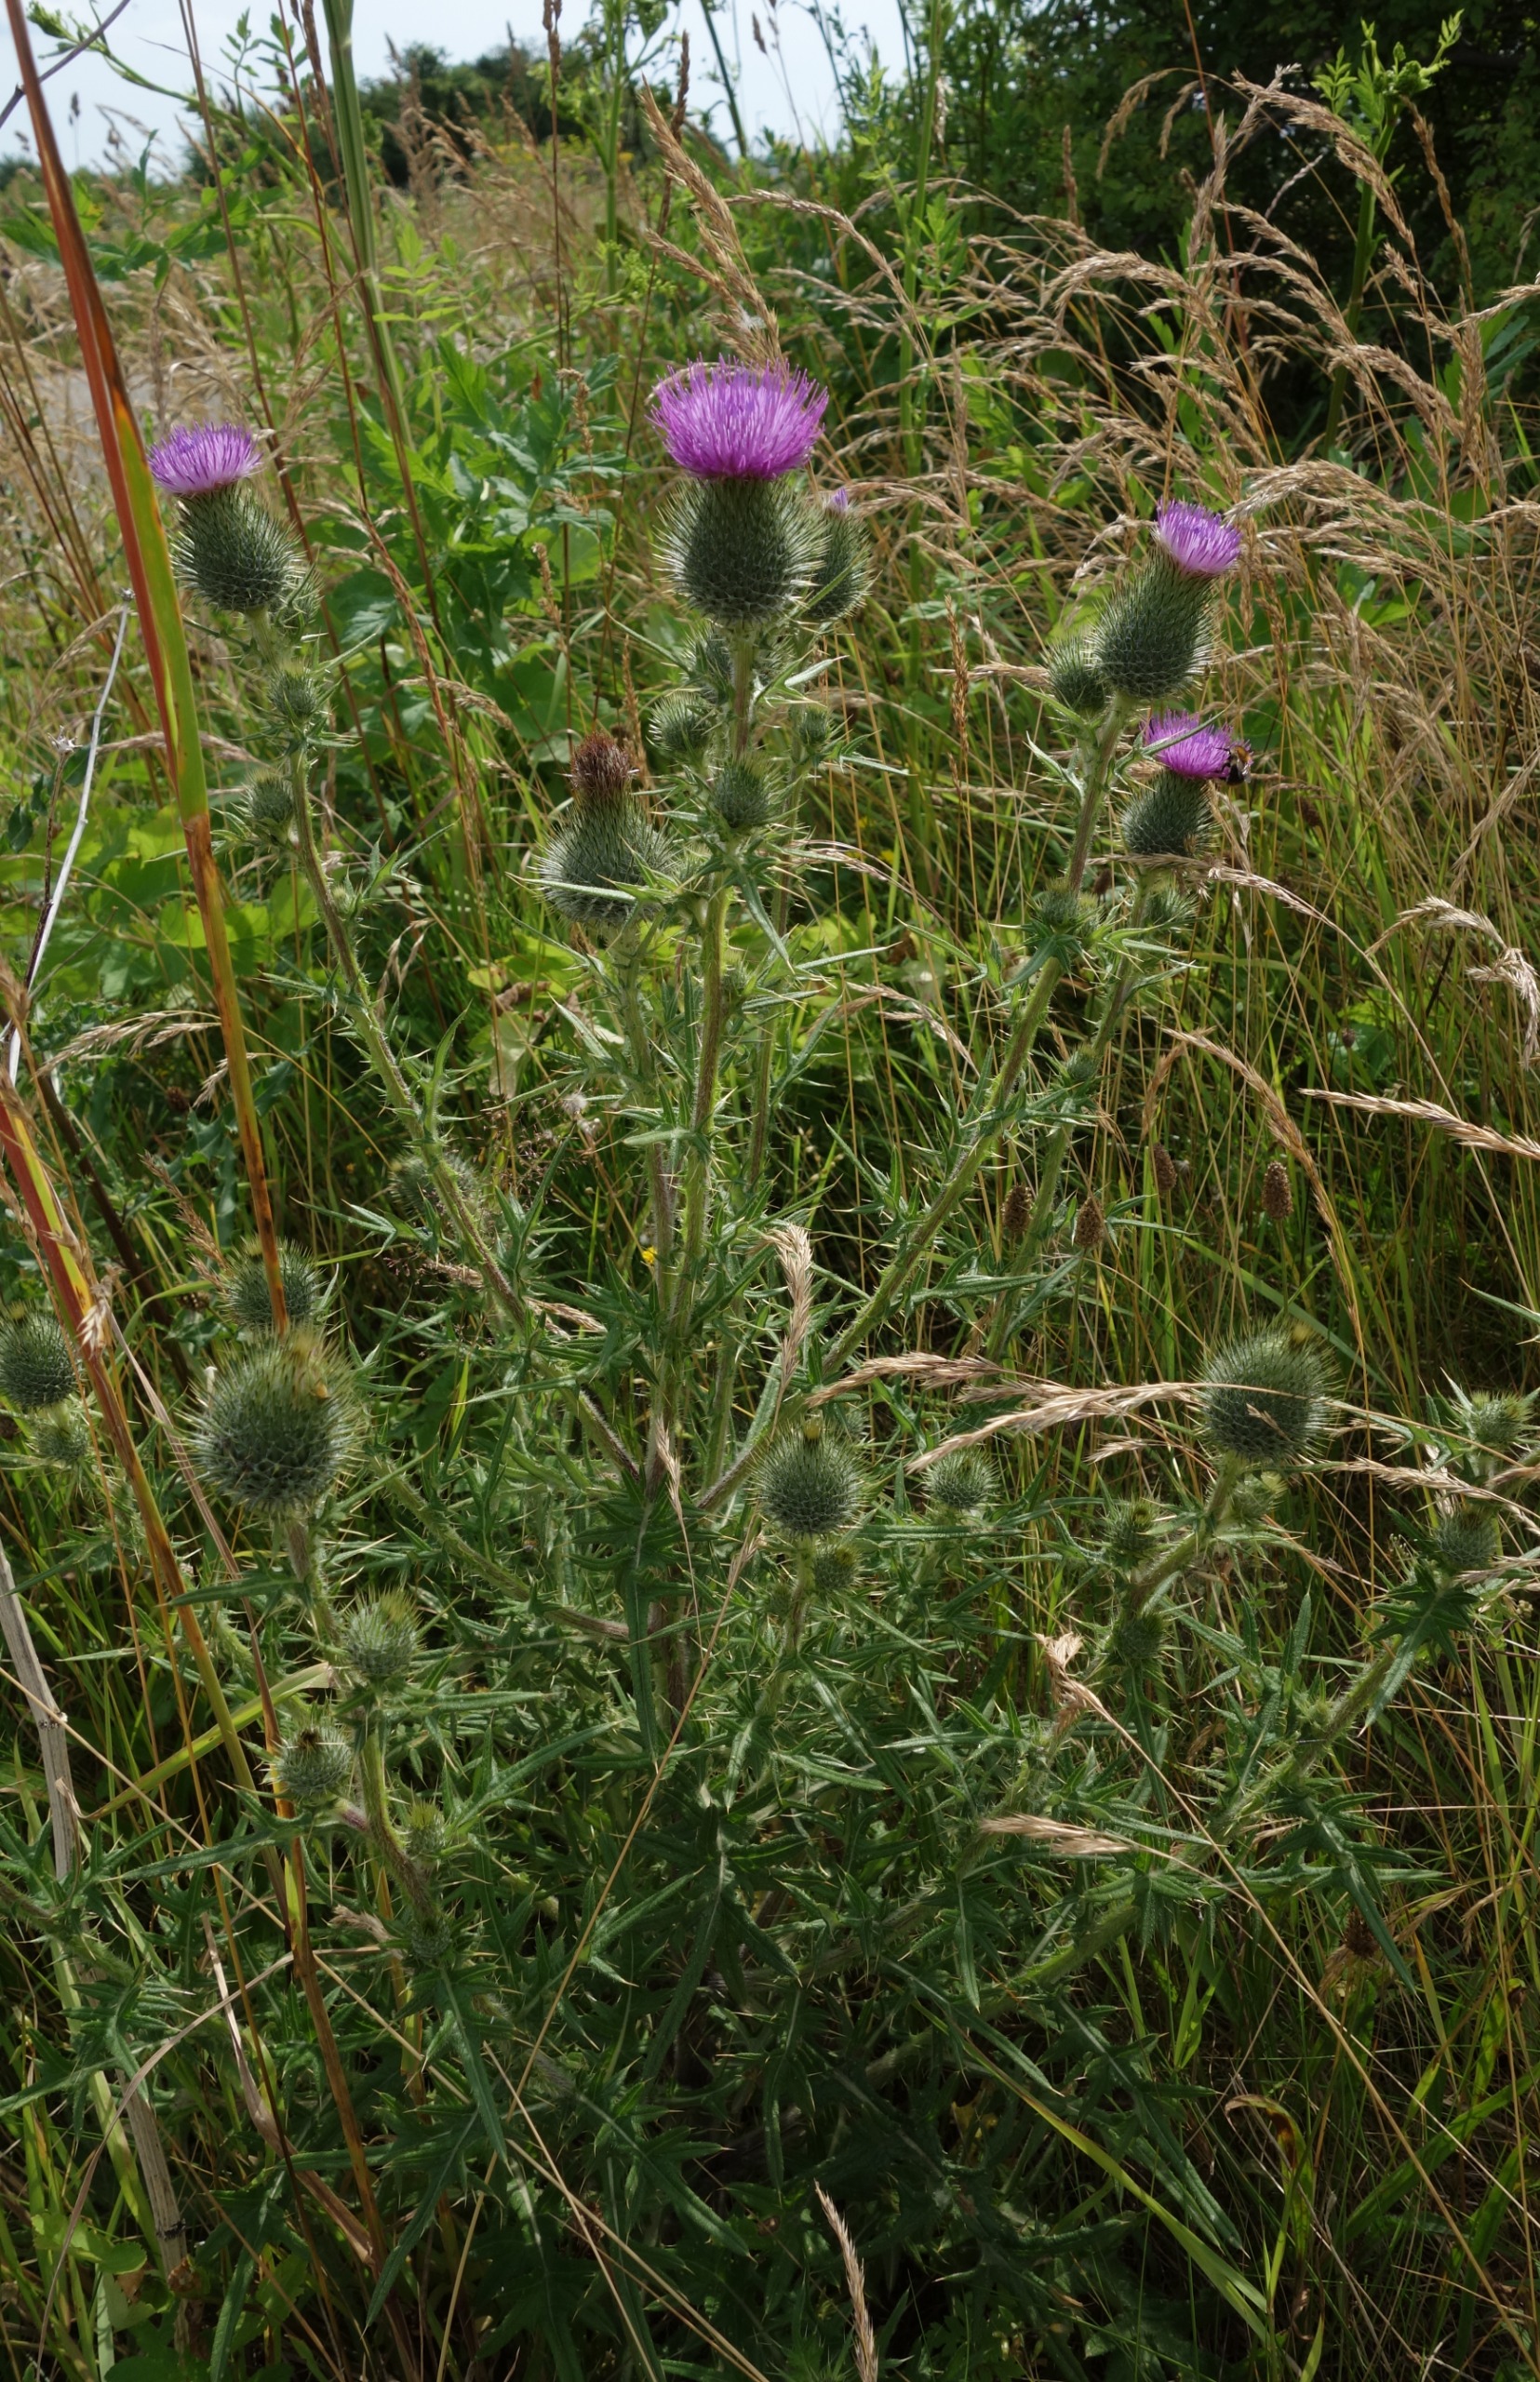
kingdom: Plantae
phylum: Tracheophyta
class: Magnoliopsida
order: Asterales
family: Asteraceae
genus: Cirsium
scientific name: Cirsium vulgare
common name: Horse-tidsel
